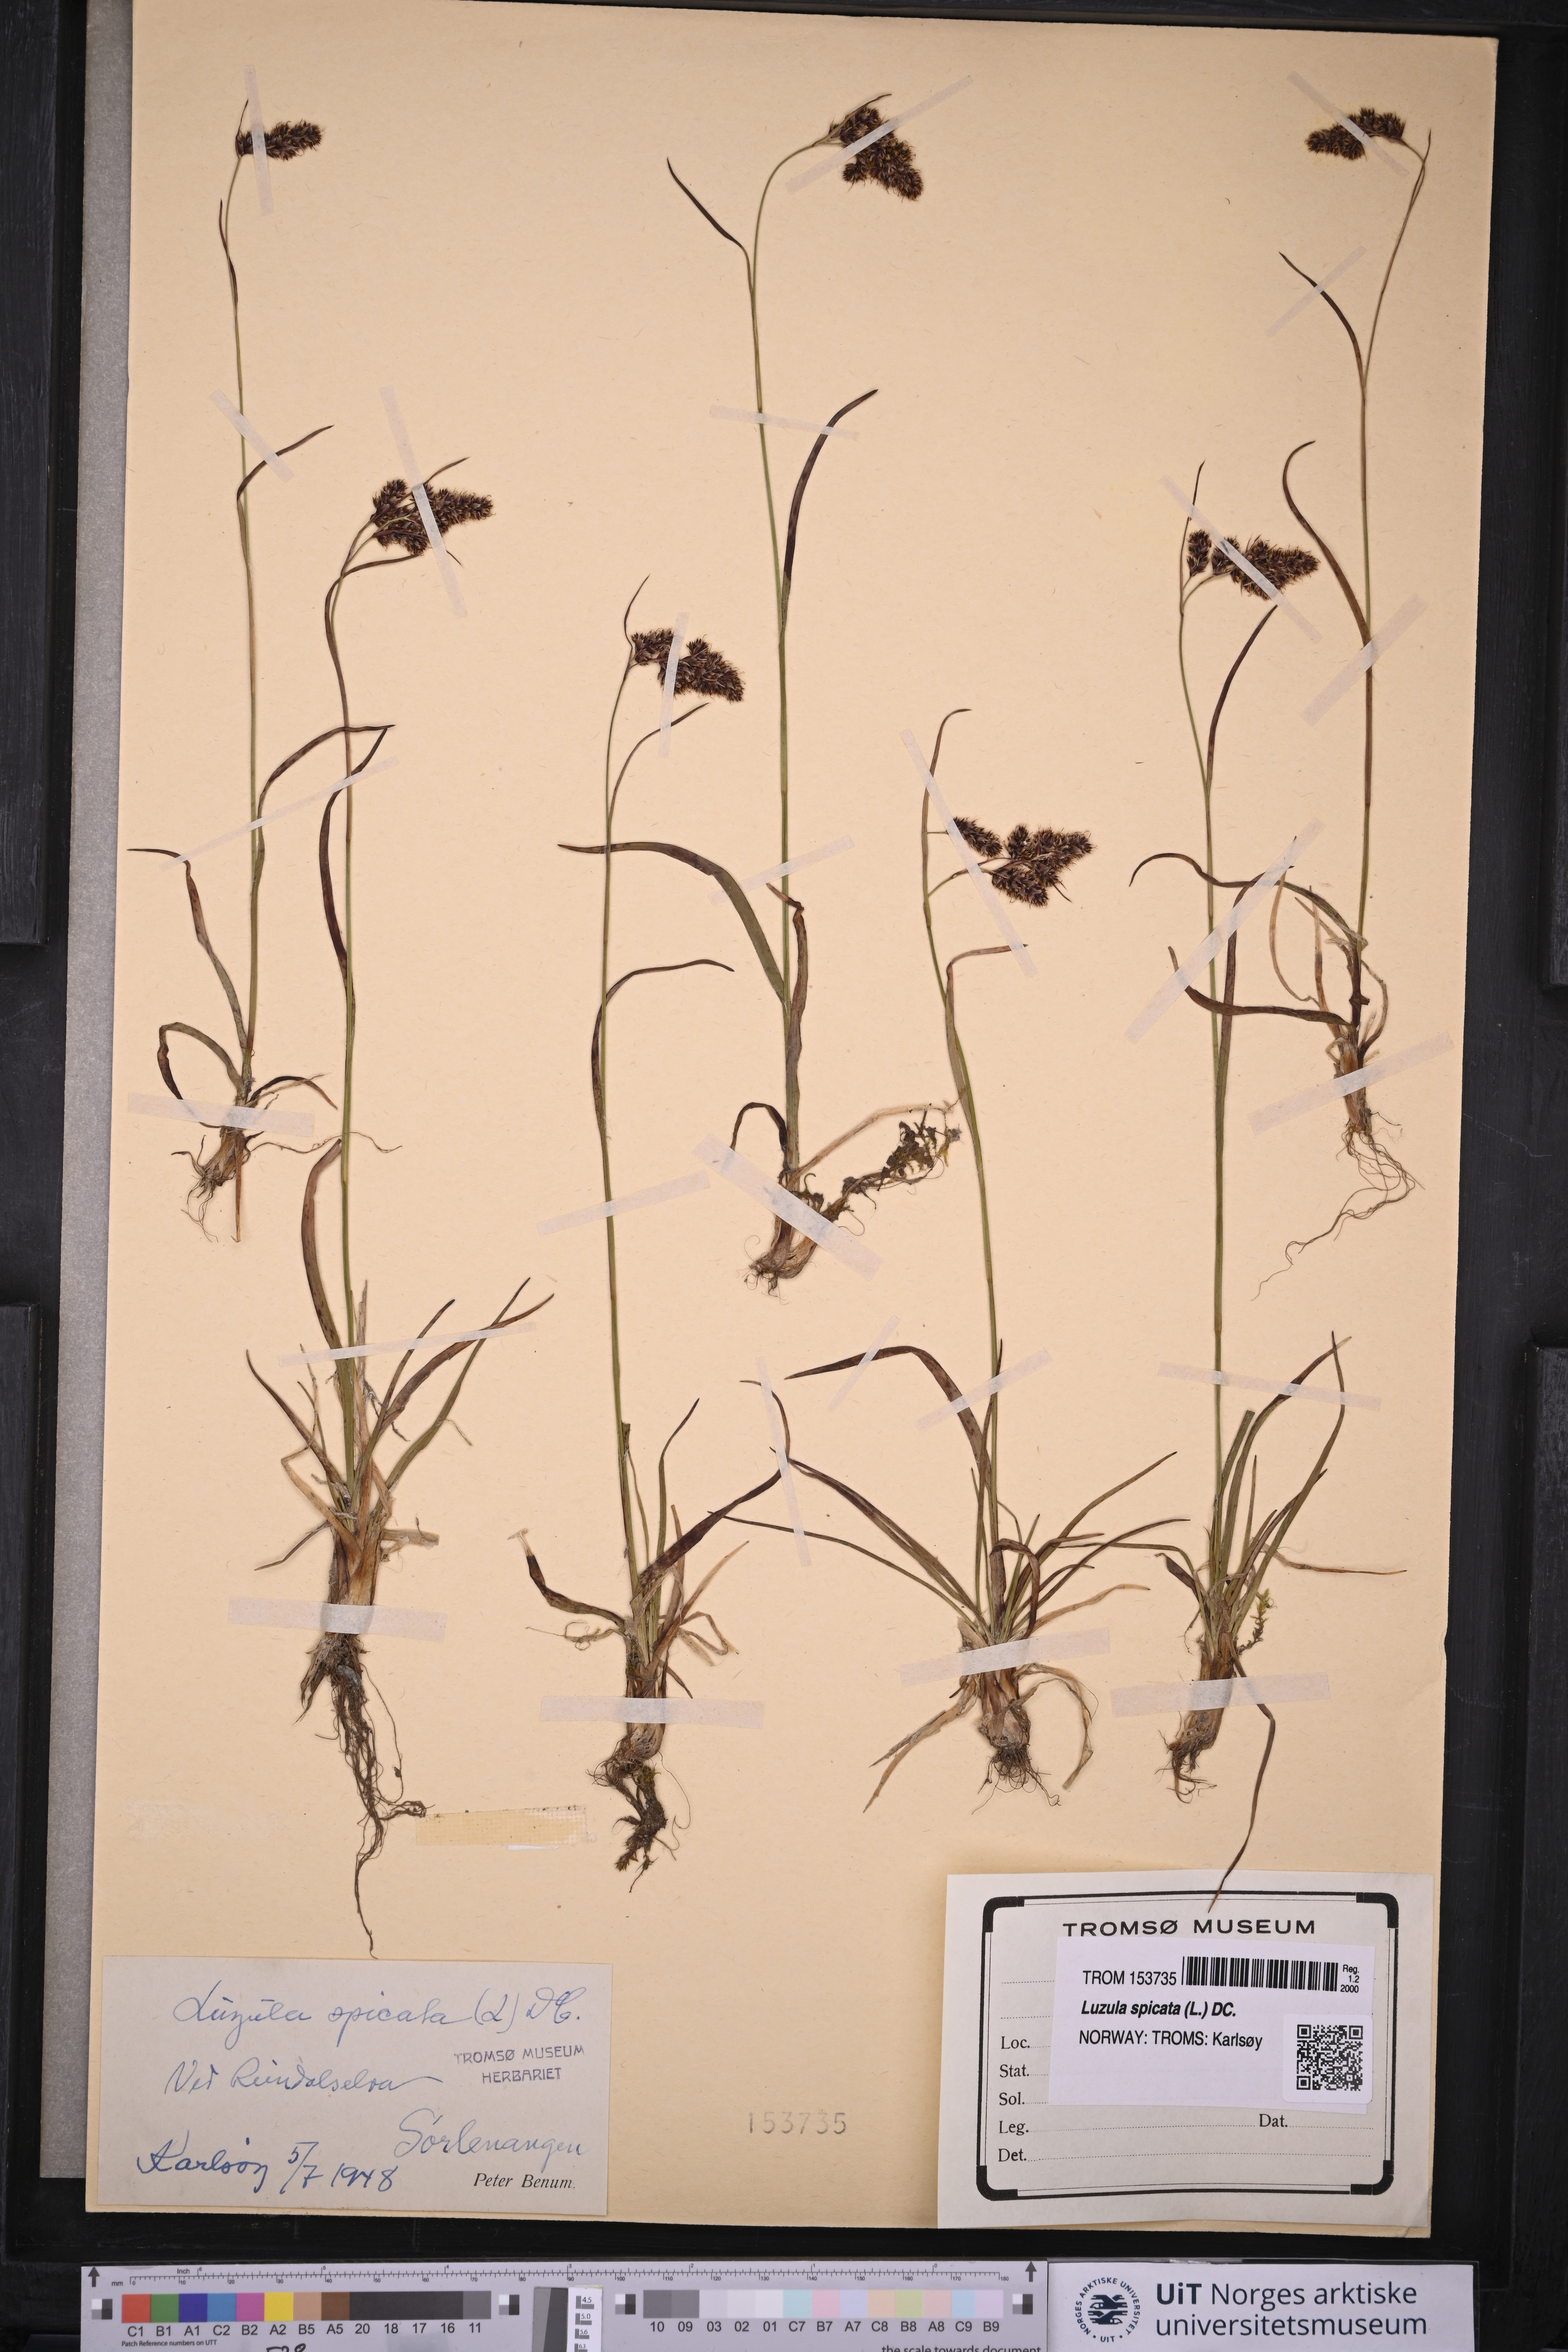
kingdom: Plantae
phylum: Tracheophyta
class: Liliopsida
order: Poales
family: Juncaceae
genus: Luzula
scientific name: Luzula spicata
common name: Spiked wood-rush
